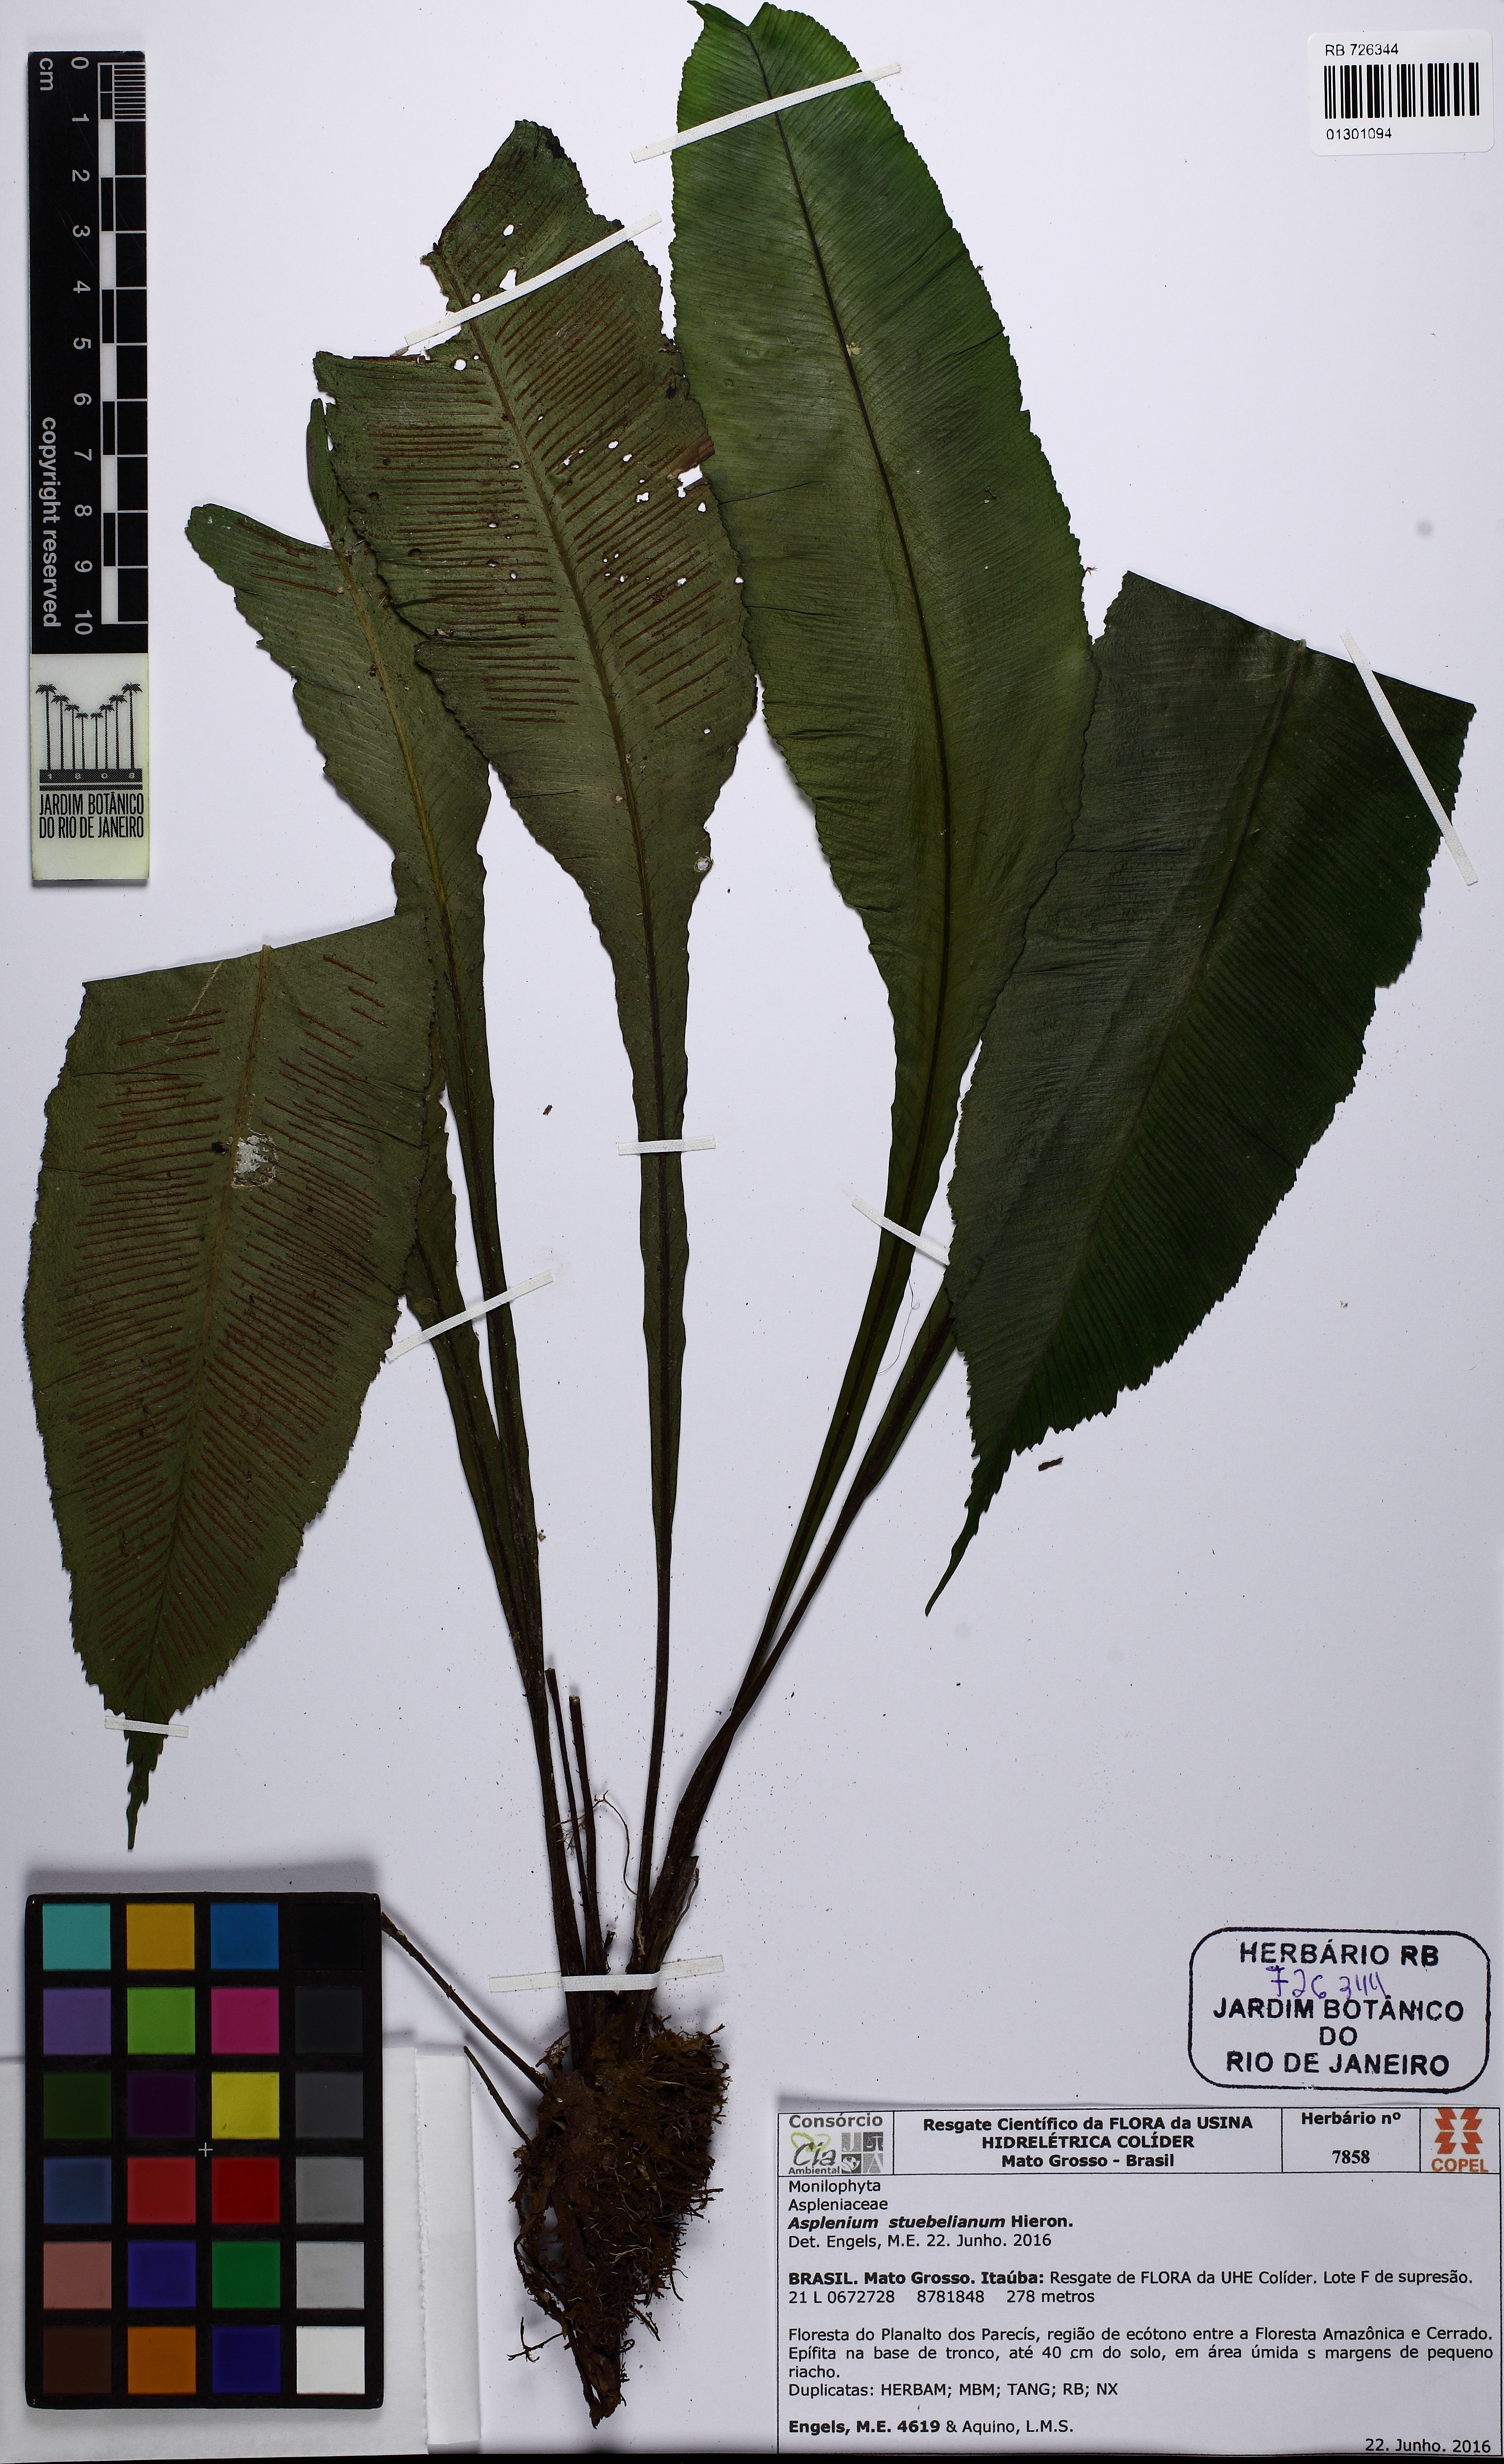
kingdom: Plantae
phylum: Tracheophyta
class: Polypodiopsida
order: Polypodiales
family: Aspleniaceae
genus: Asplenium
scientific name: Asplenium stuebelianum
